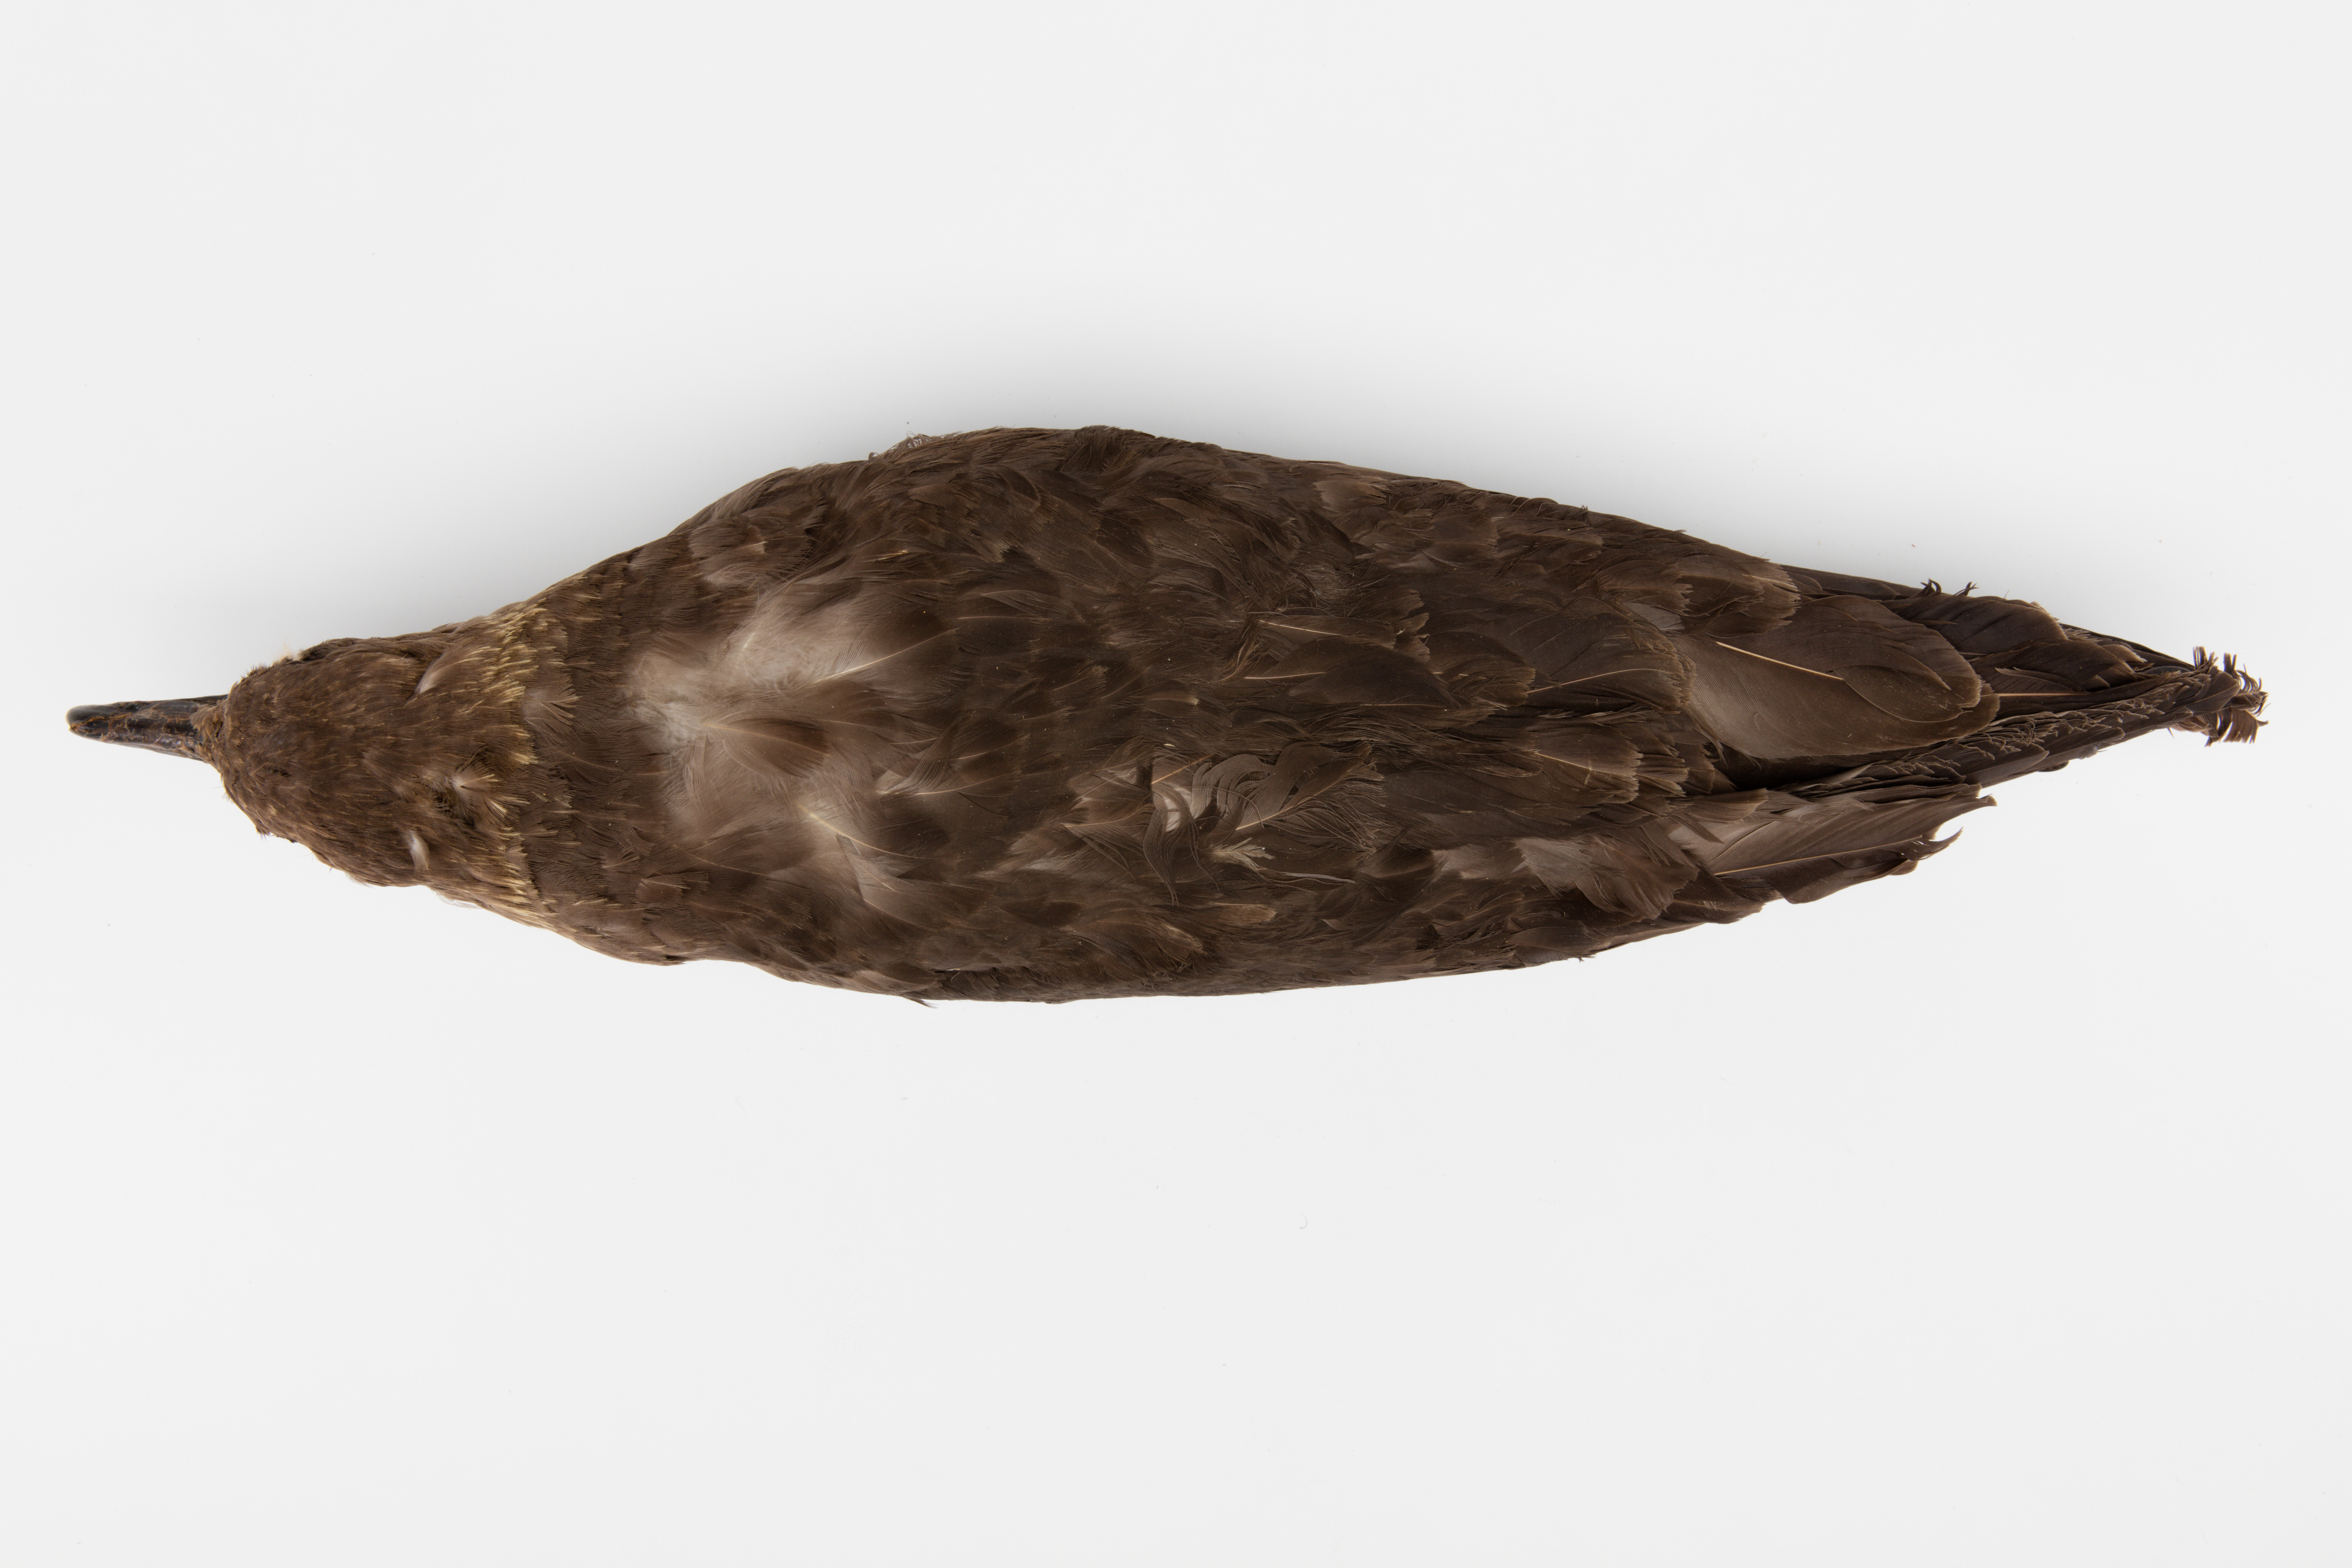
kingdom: Animalia
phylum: Chordata
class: Aves
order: Charadriiformes
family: Stercorariidae
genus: Stercorarius
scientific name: Stercorarius antarcticus
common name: Brown skua
